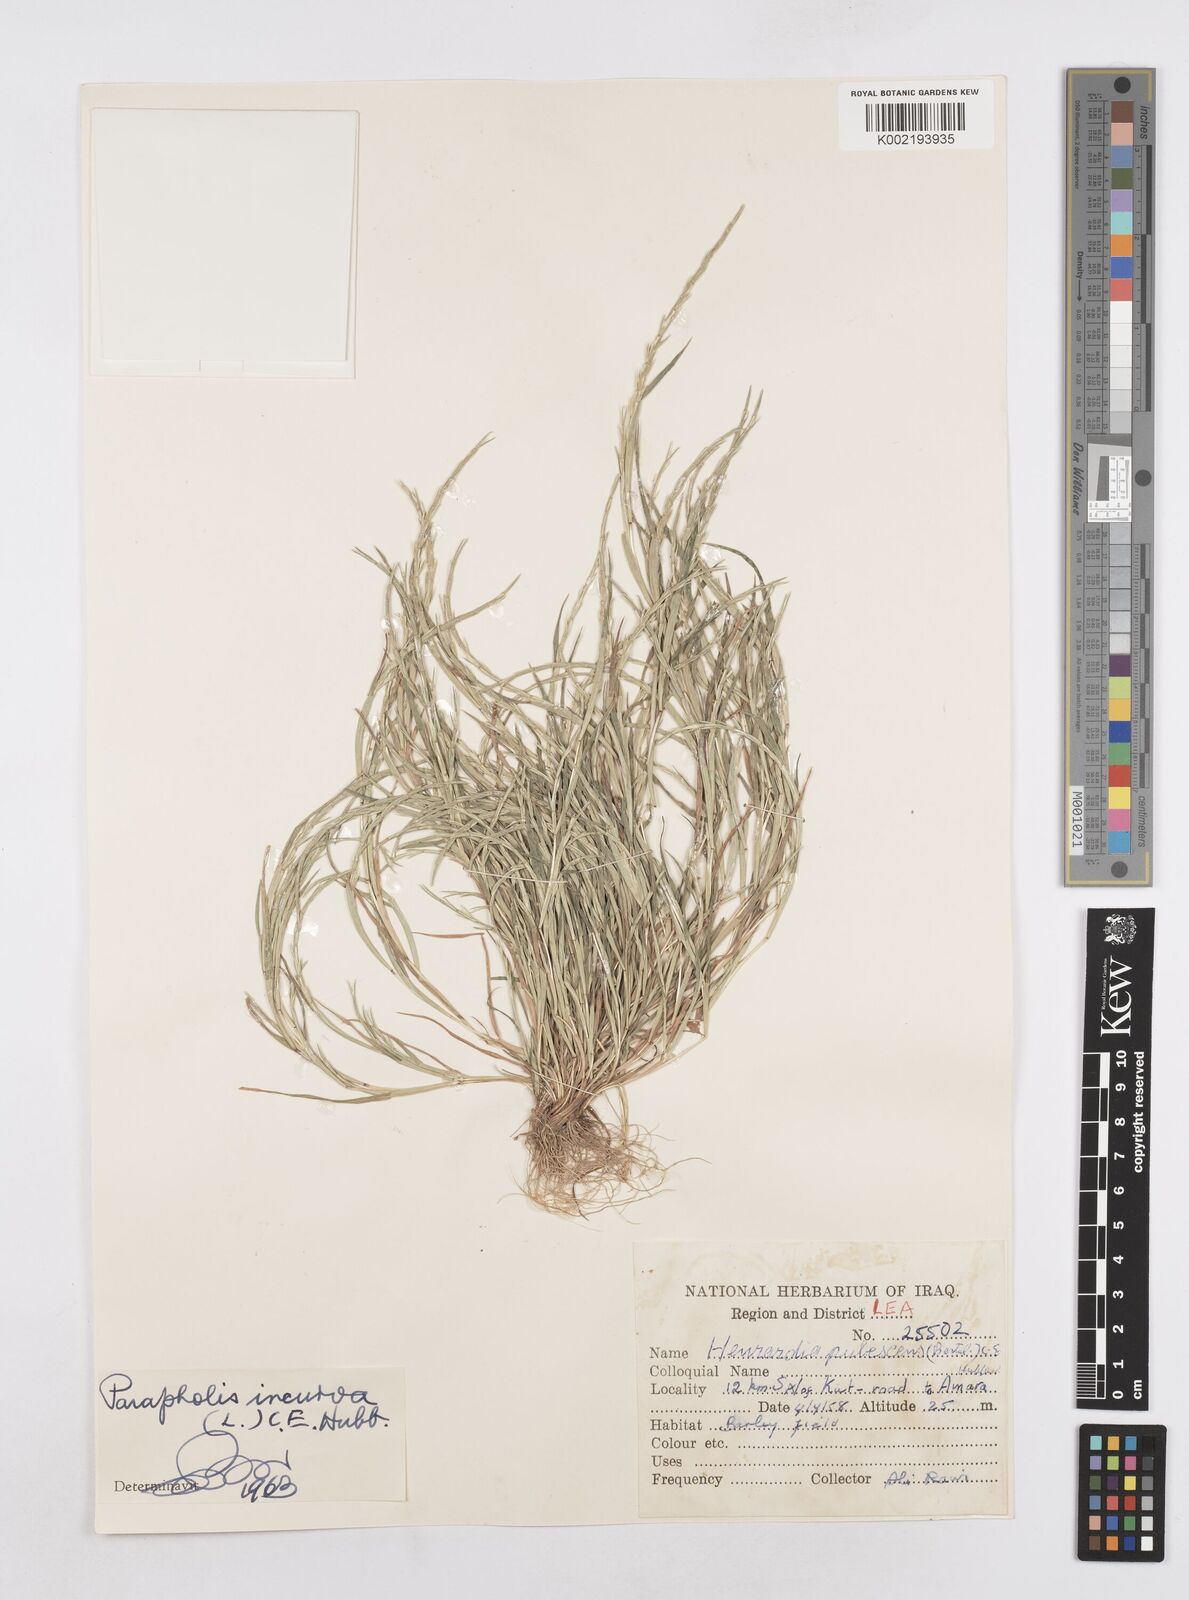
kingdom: Plantae
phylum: Tracheophyta
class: Liliopsida
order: Poales
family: Poaceae
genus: Parapholis
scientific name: Parapholis incurva
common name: Curved sicklegrass
